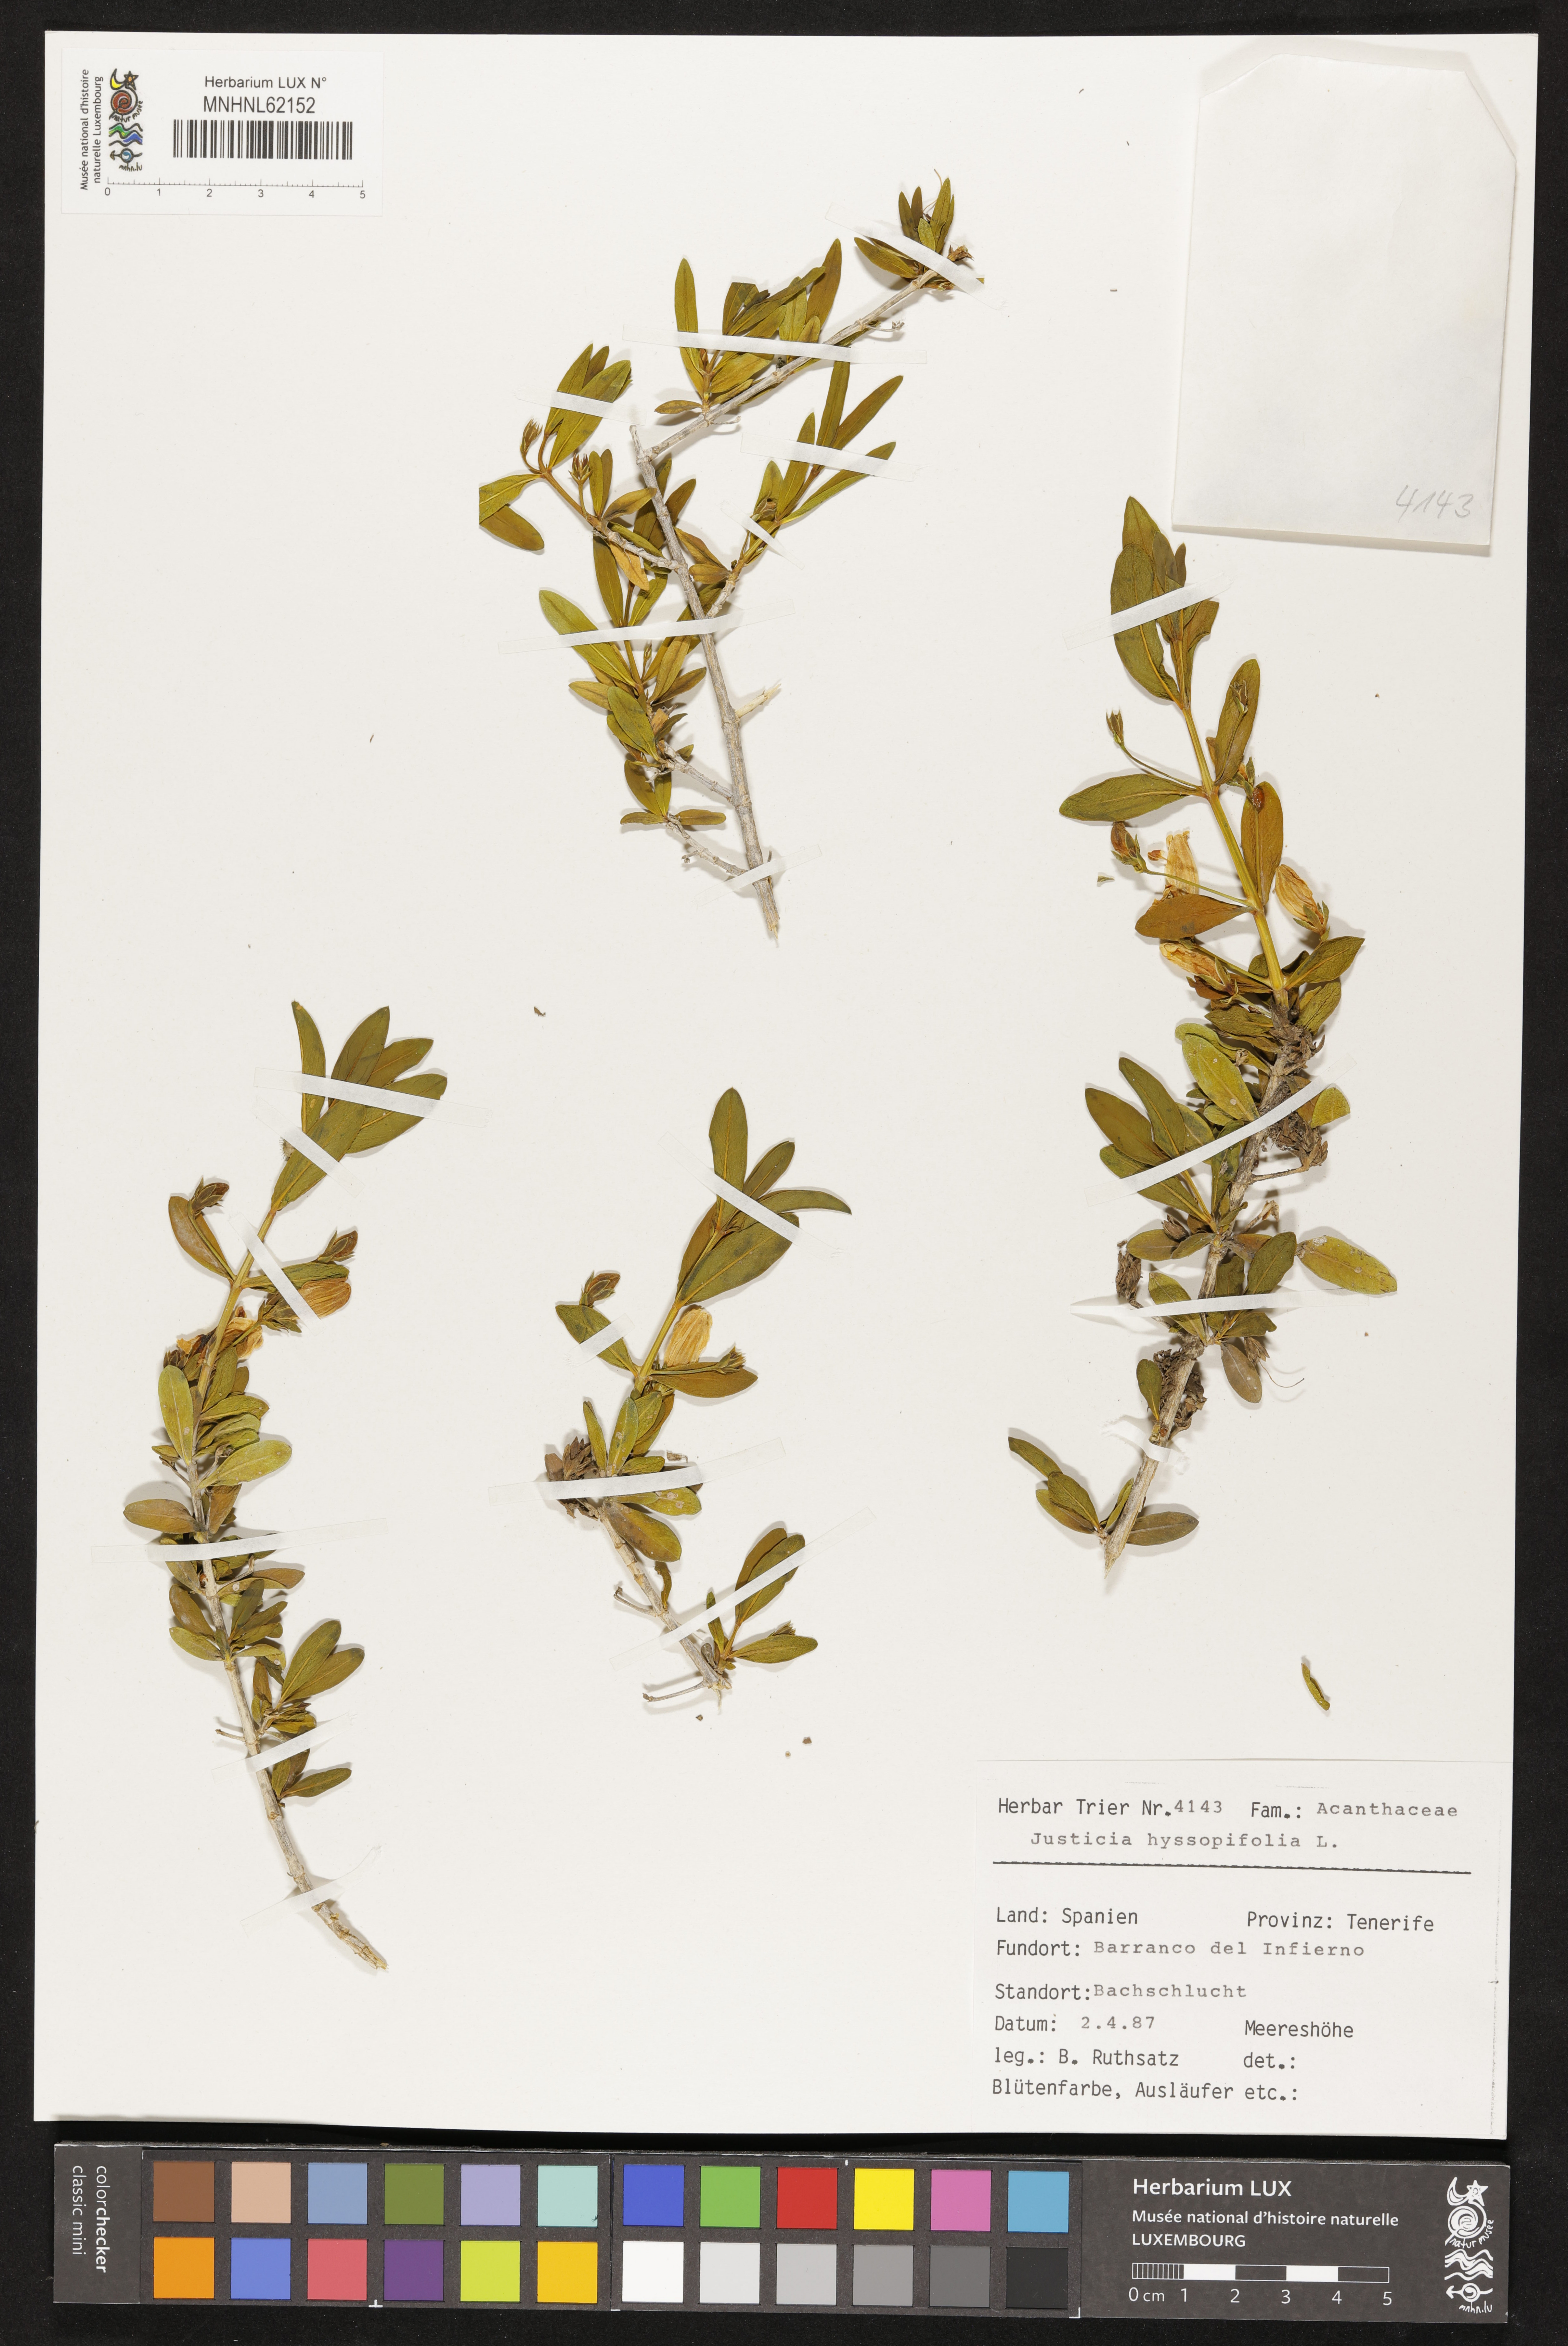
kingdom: Plantae
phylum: Tracheophyta
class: Magnoliopsida
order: Lamiales
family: Acanthaceae
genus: Justicia
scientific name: Justicia hyssopifolia
